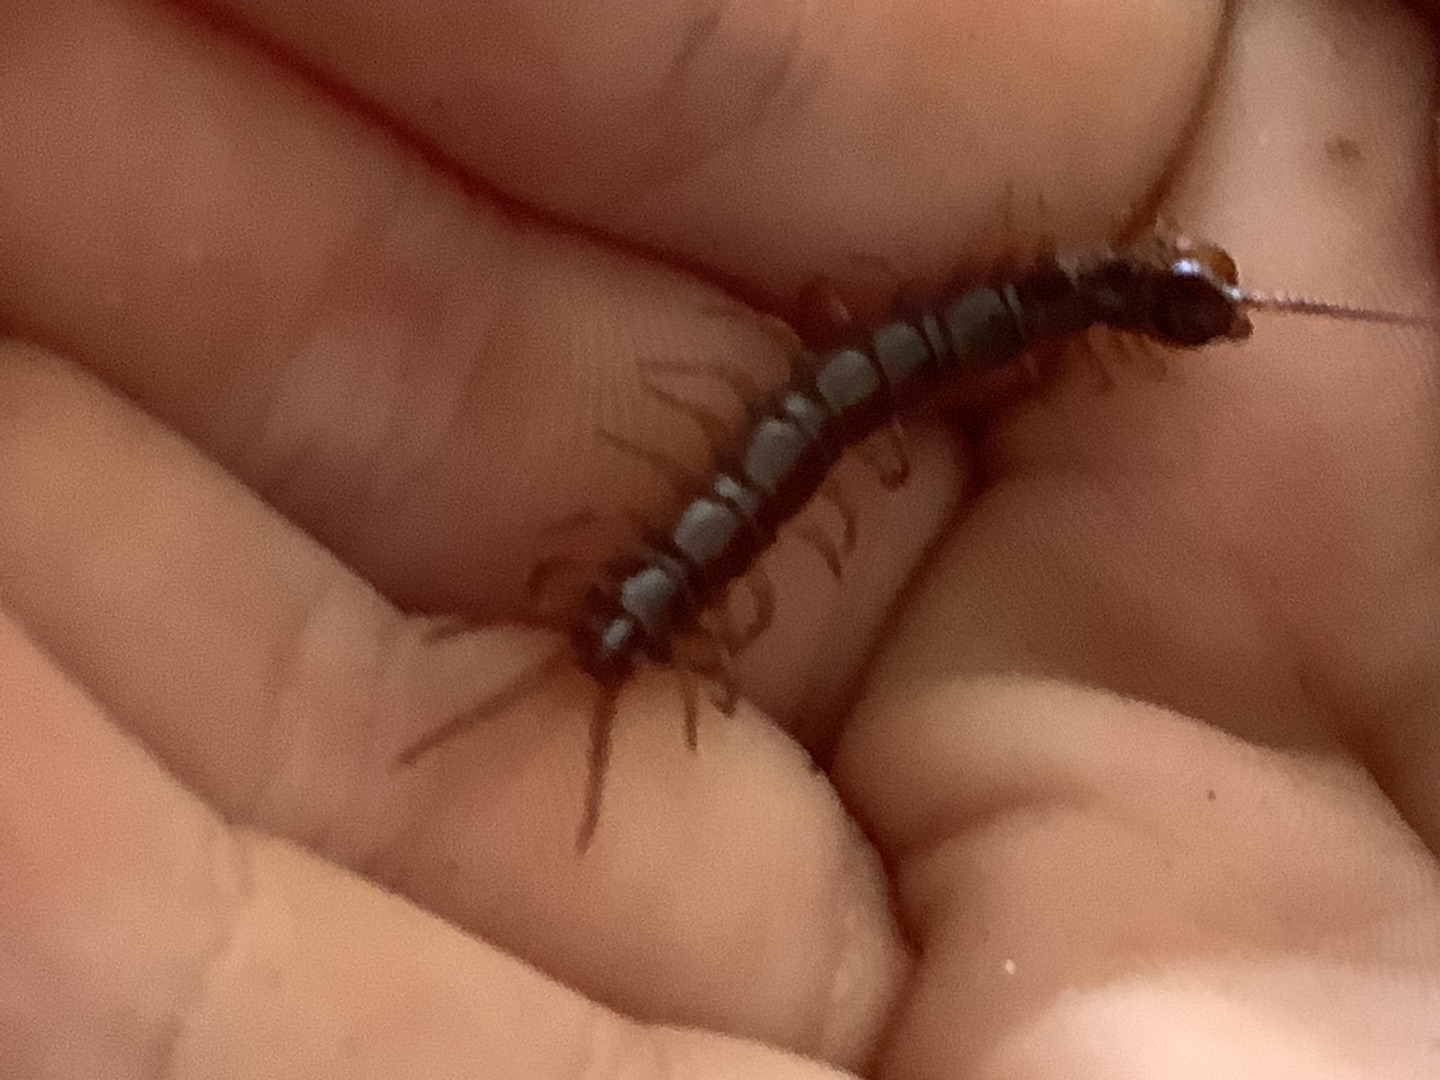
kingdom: Animalia
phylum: Arthropoda
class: Chilopoda
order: Lithobiomorpha
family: Lithobiidae
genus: Lithobius
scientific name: Lithobius forficatus
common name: Stenskolopender
